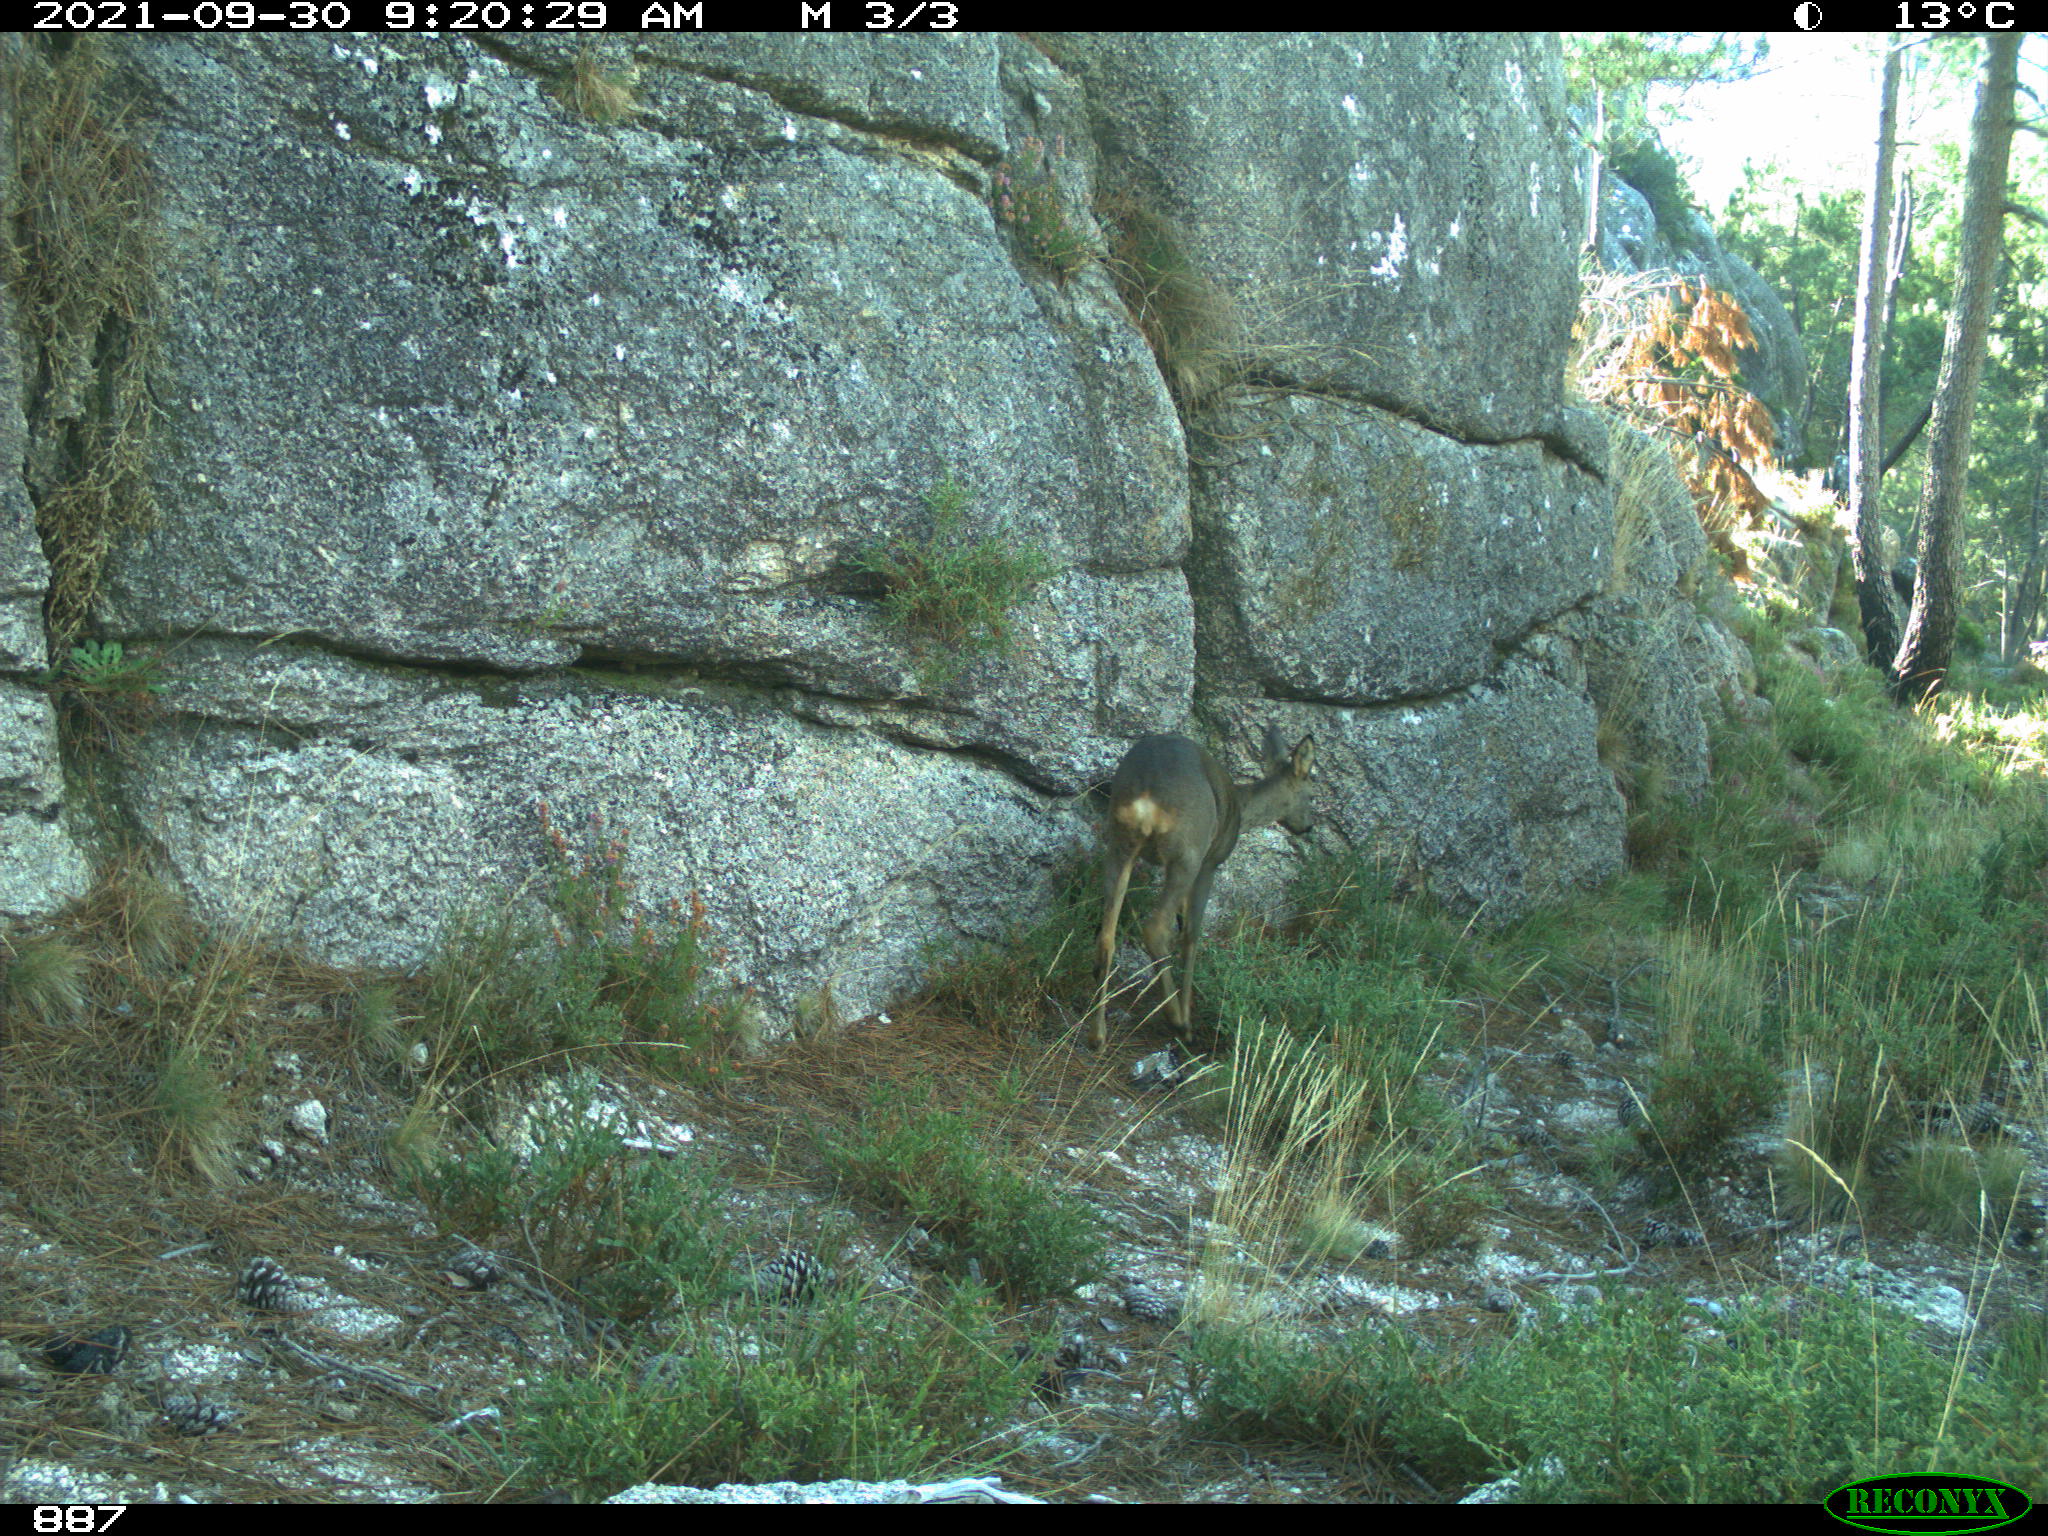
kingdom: Animalia
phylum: Chordata
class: Mammalia
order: Artiodactyla
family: Cervidae
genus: Capreolus
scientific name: Capreolus capreolus
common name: Western roe deer
